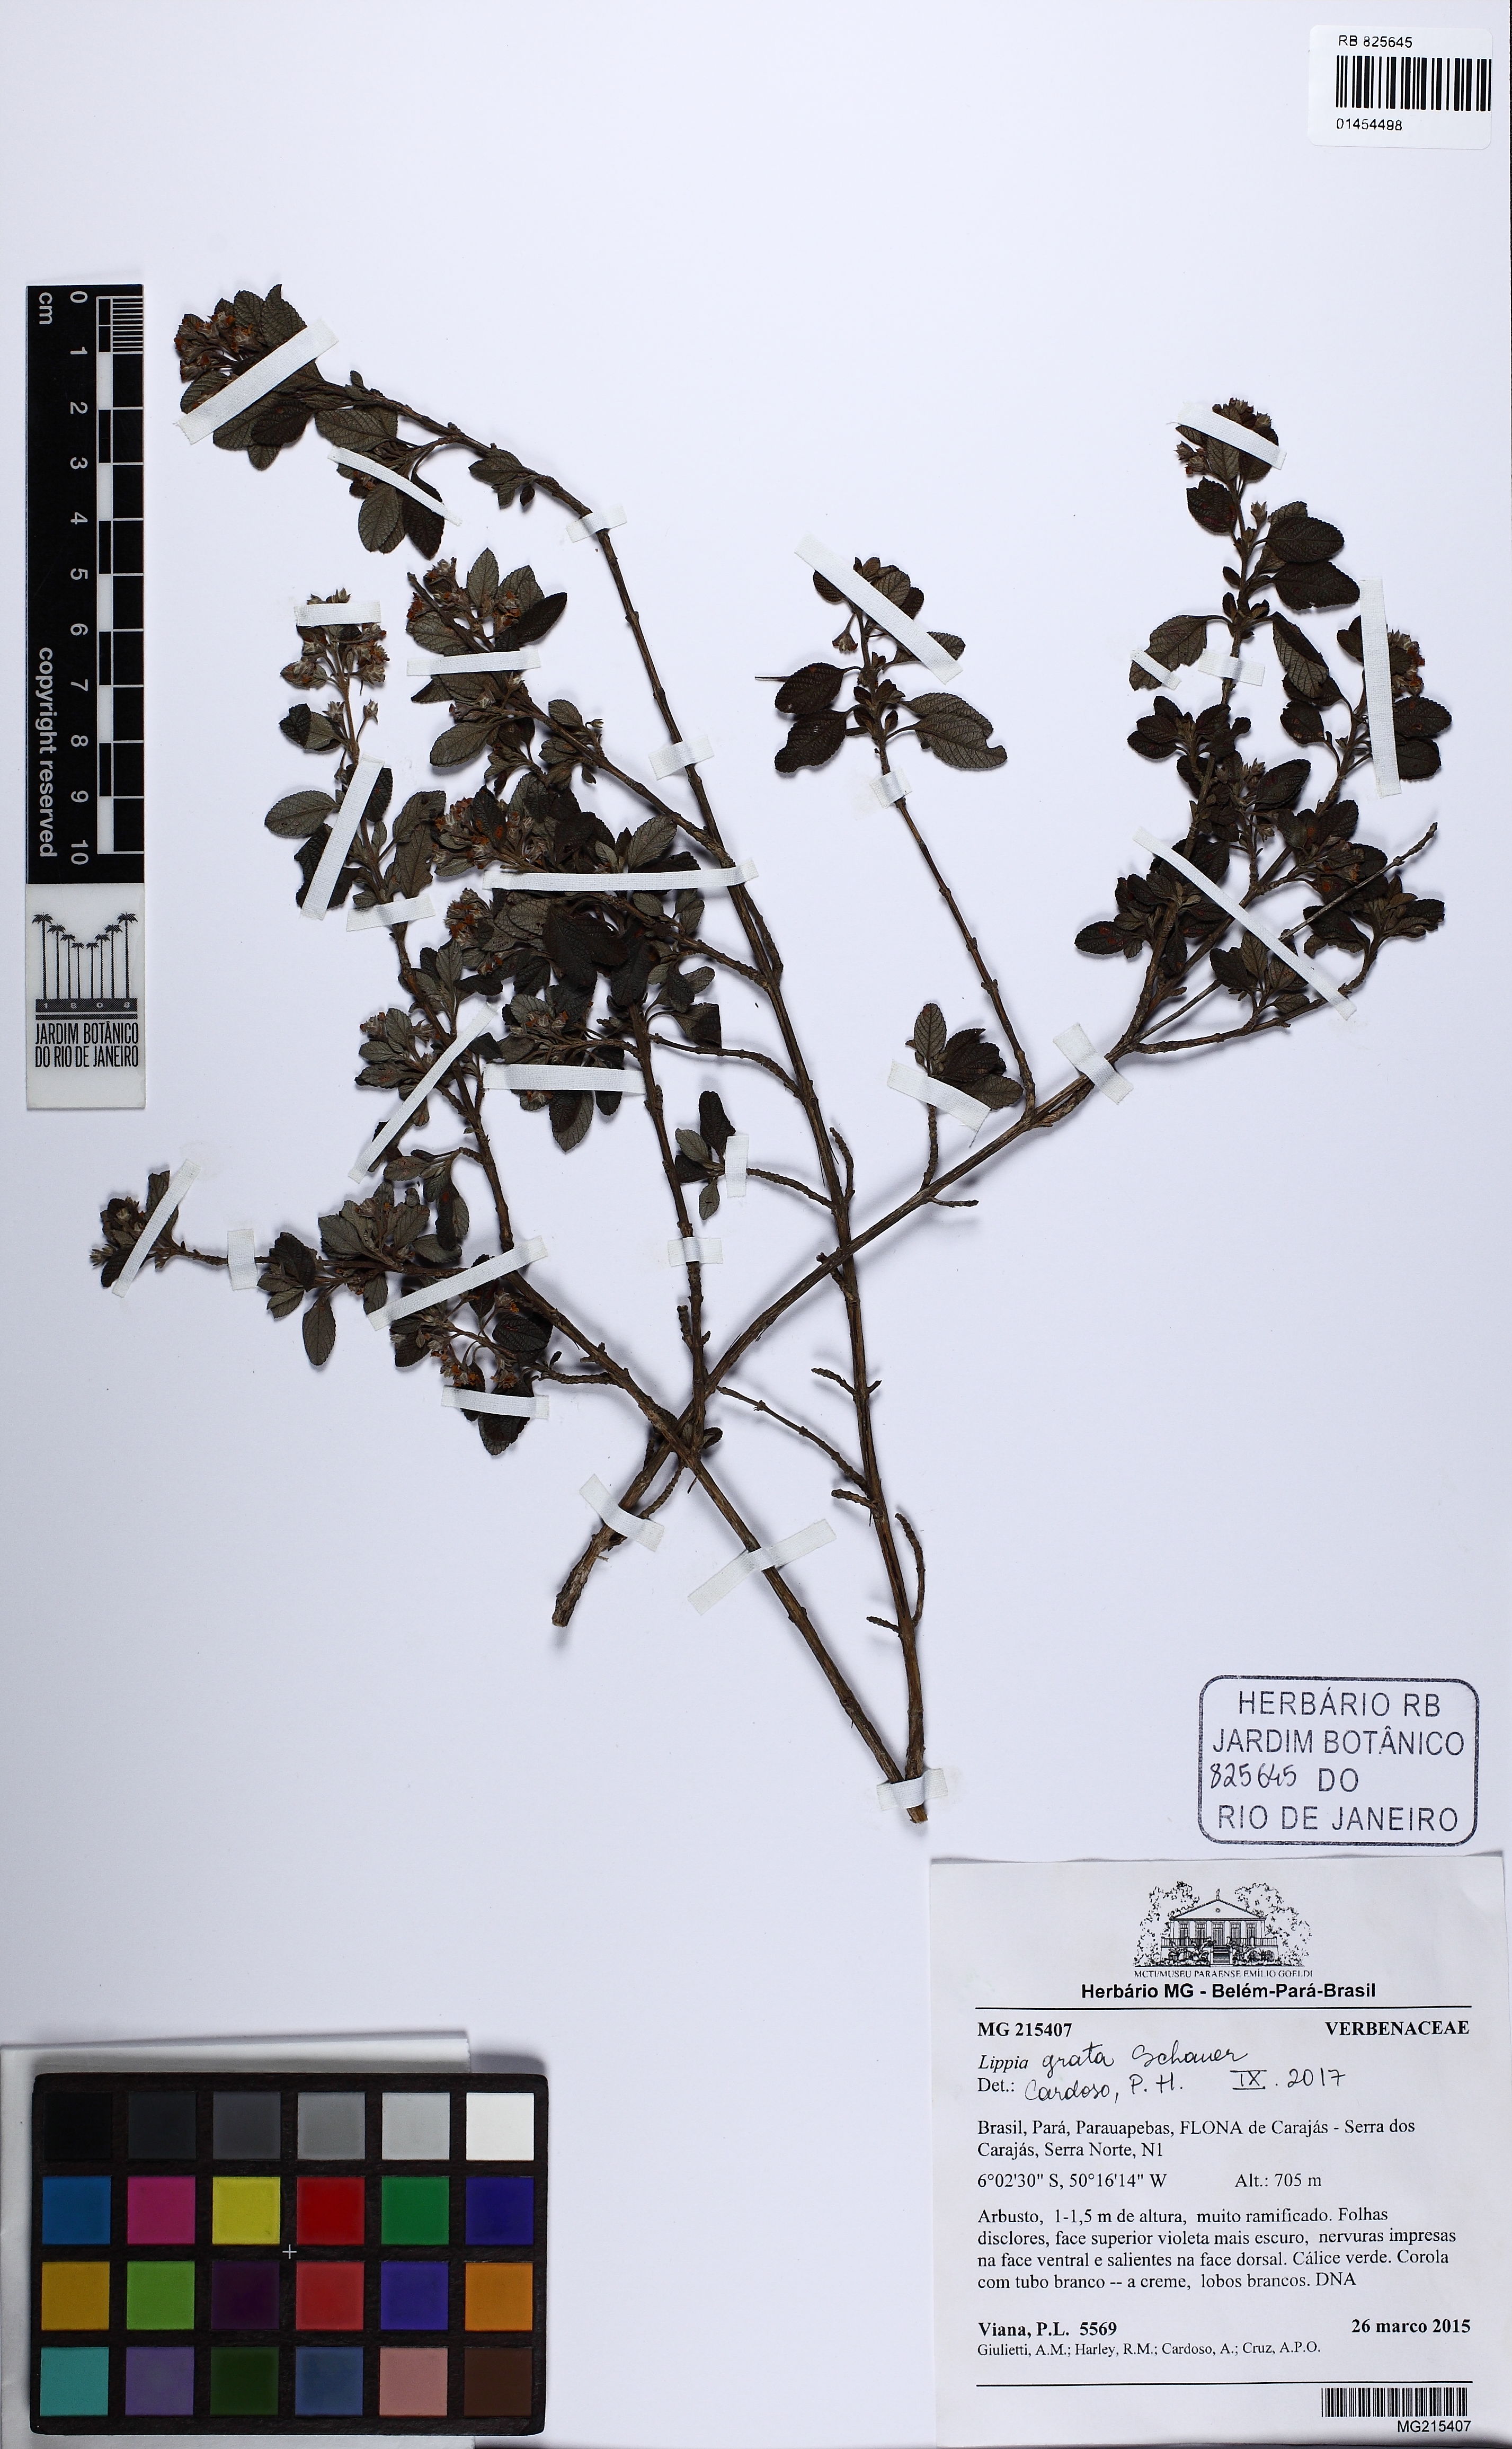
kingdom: Plantae
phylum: Tracheophyta
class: Magnoliopsida
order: Lamiales
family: Verbenaceae
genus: Lippia
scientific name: Lippia grata
